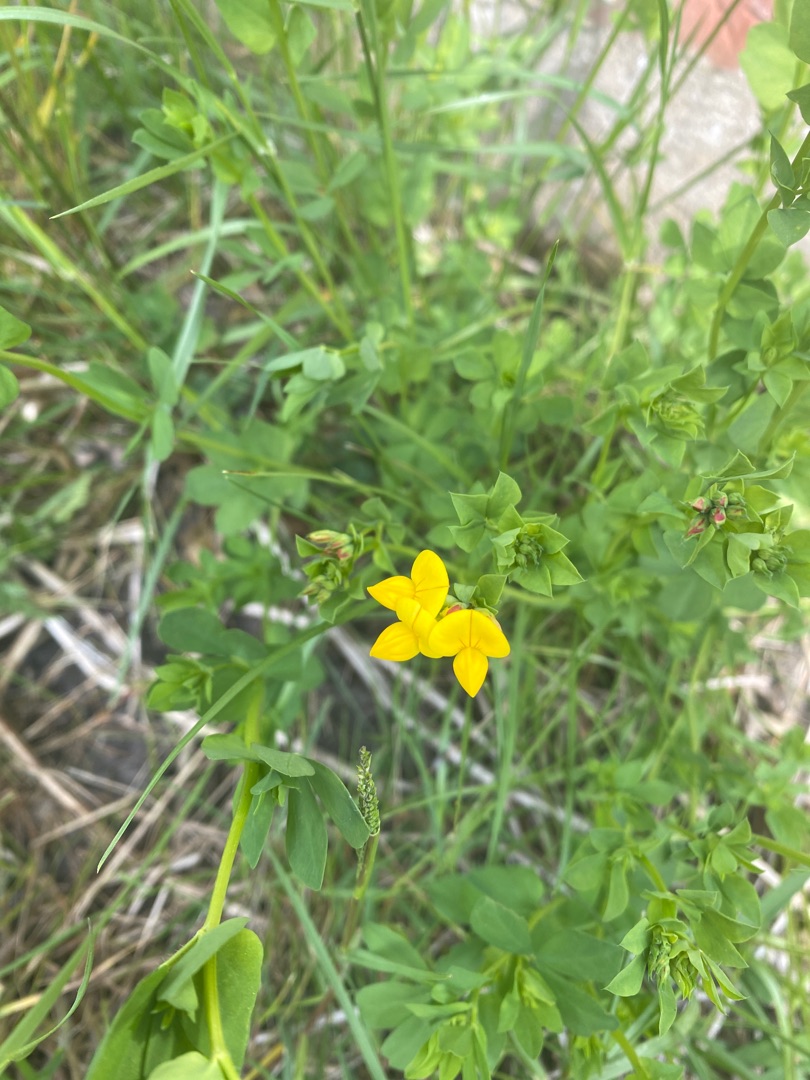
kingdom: Plantae
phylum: Tracheophyta
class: Magnoliopsida
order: Fabales
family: Fabaceae
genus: Lotus
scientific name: Lotus corniculatus
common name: Almindelig kællingetand
